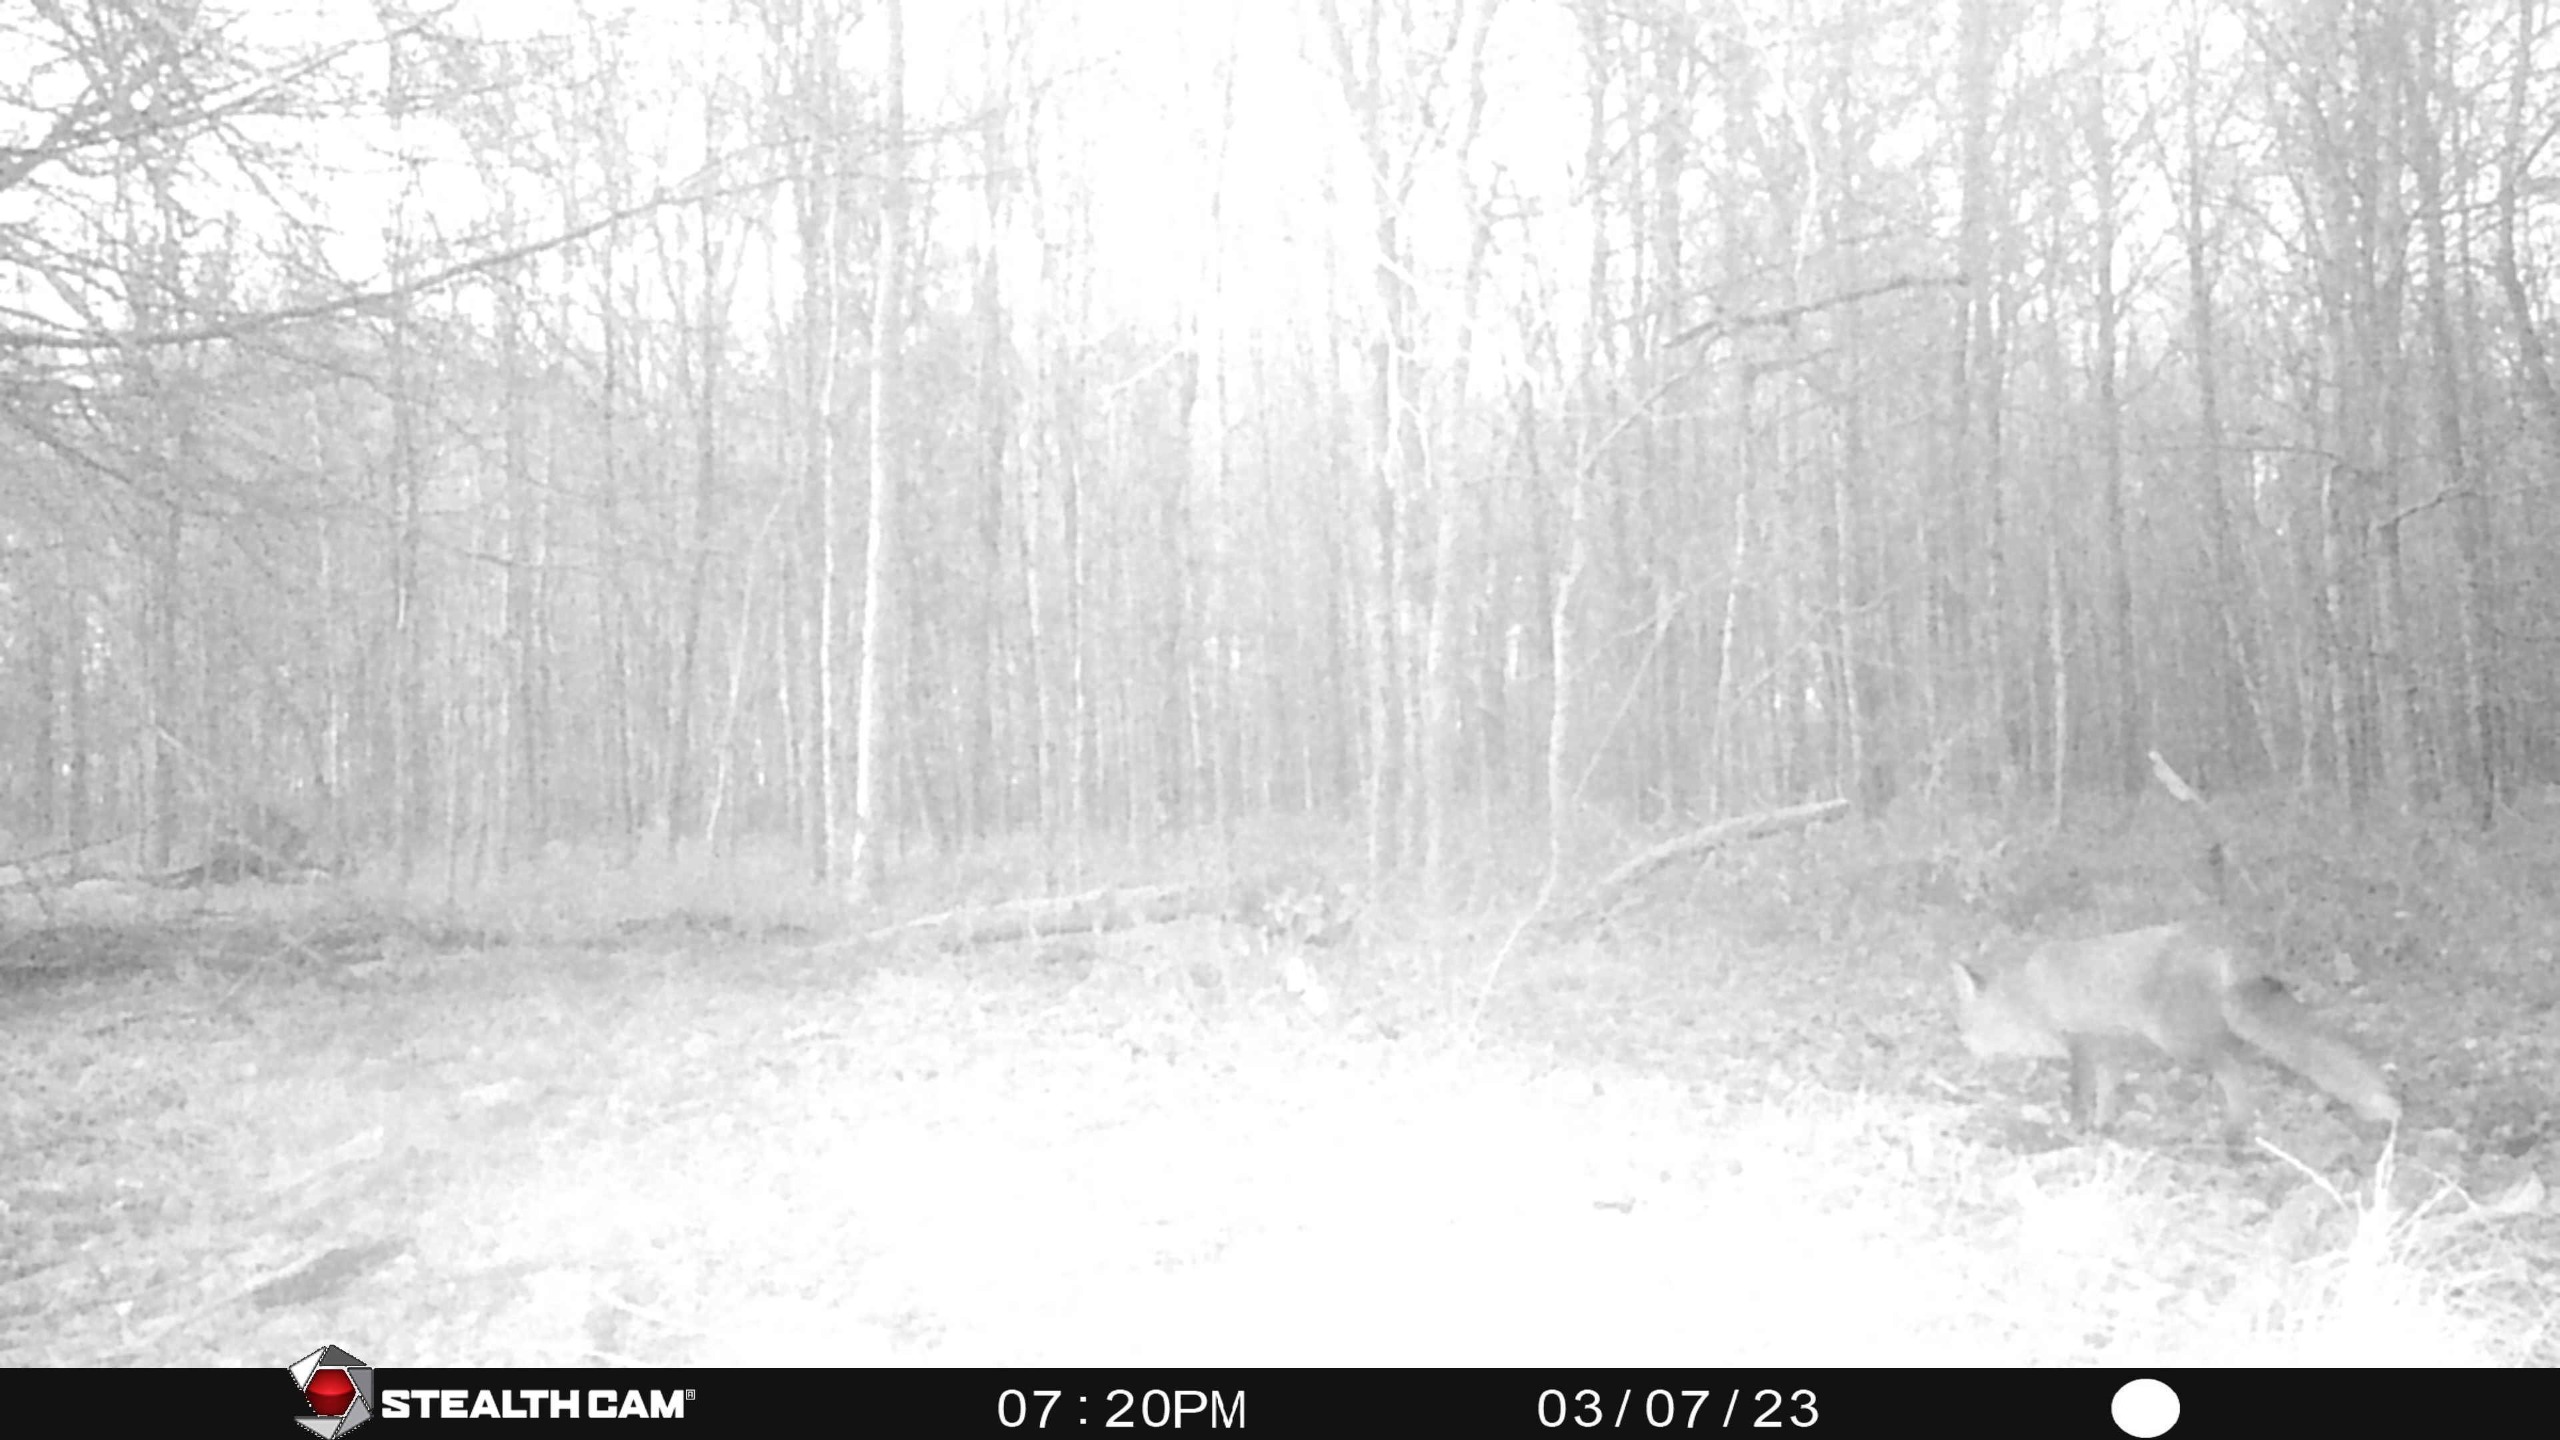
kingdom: Animalia
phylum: Chordata
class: Mammalia
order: Carnivora
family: Canidae
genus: Vulpes
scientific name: Vulpes vulpes
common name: Ræv
